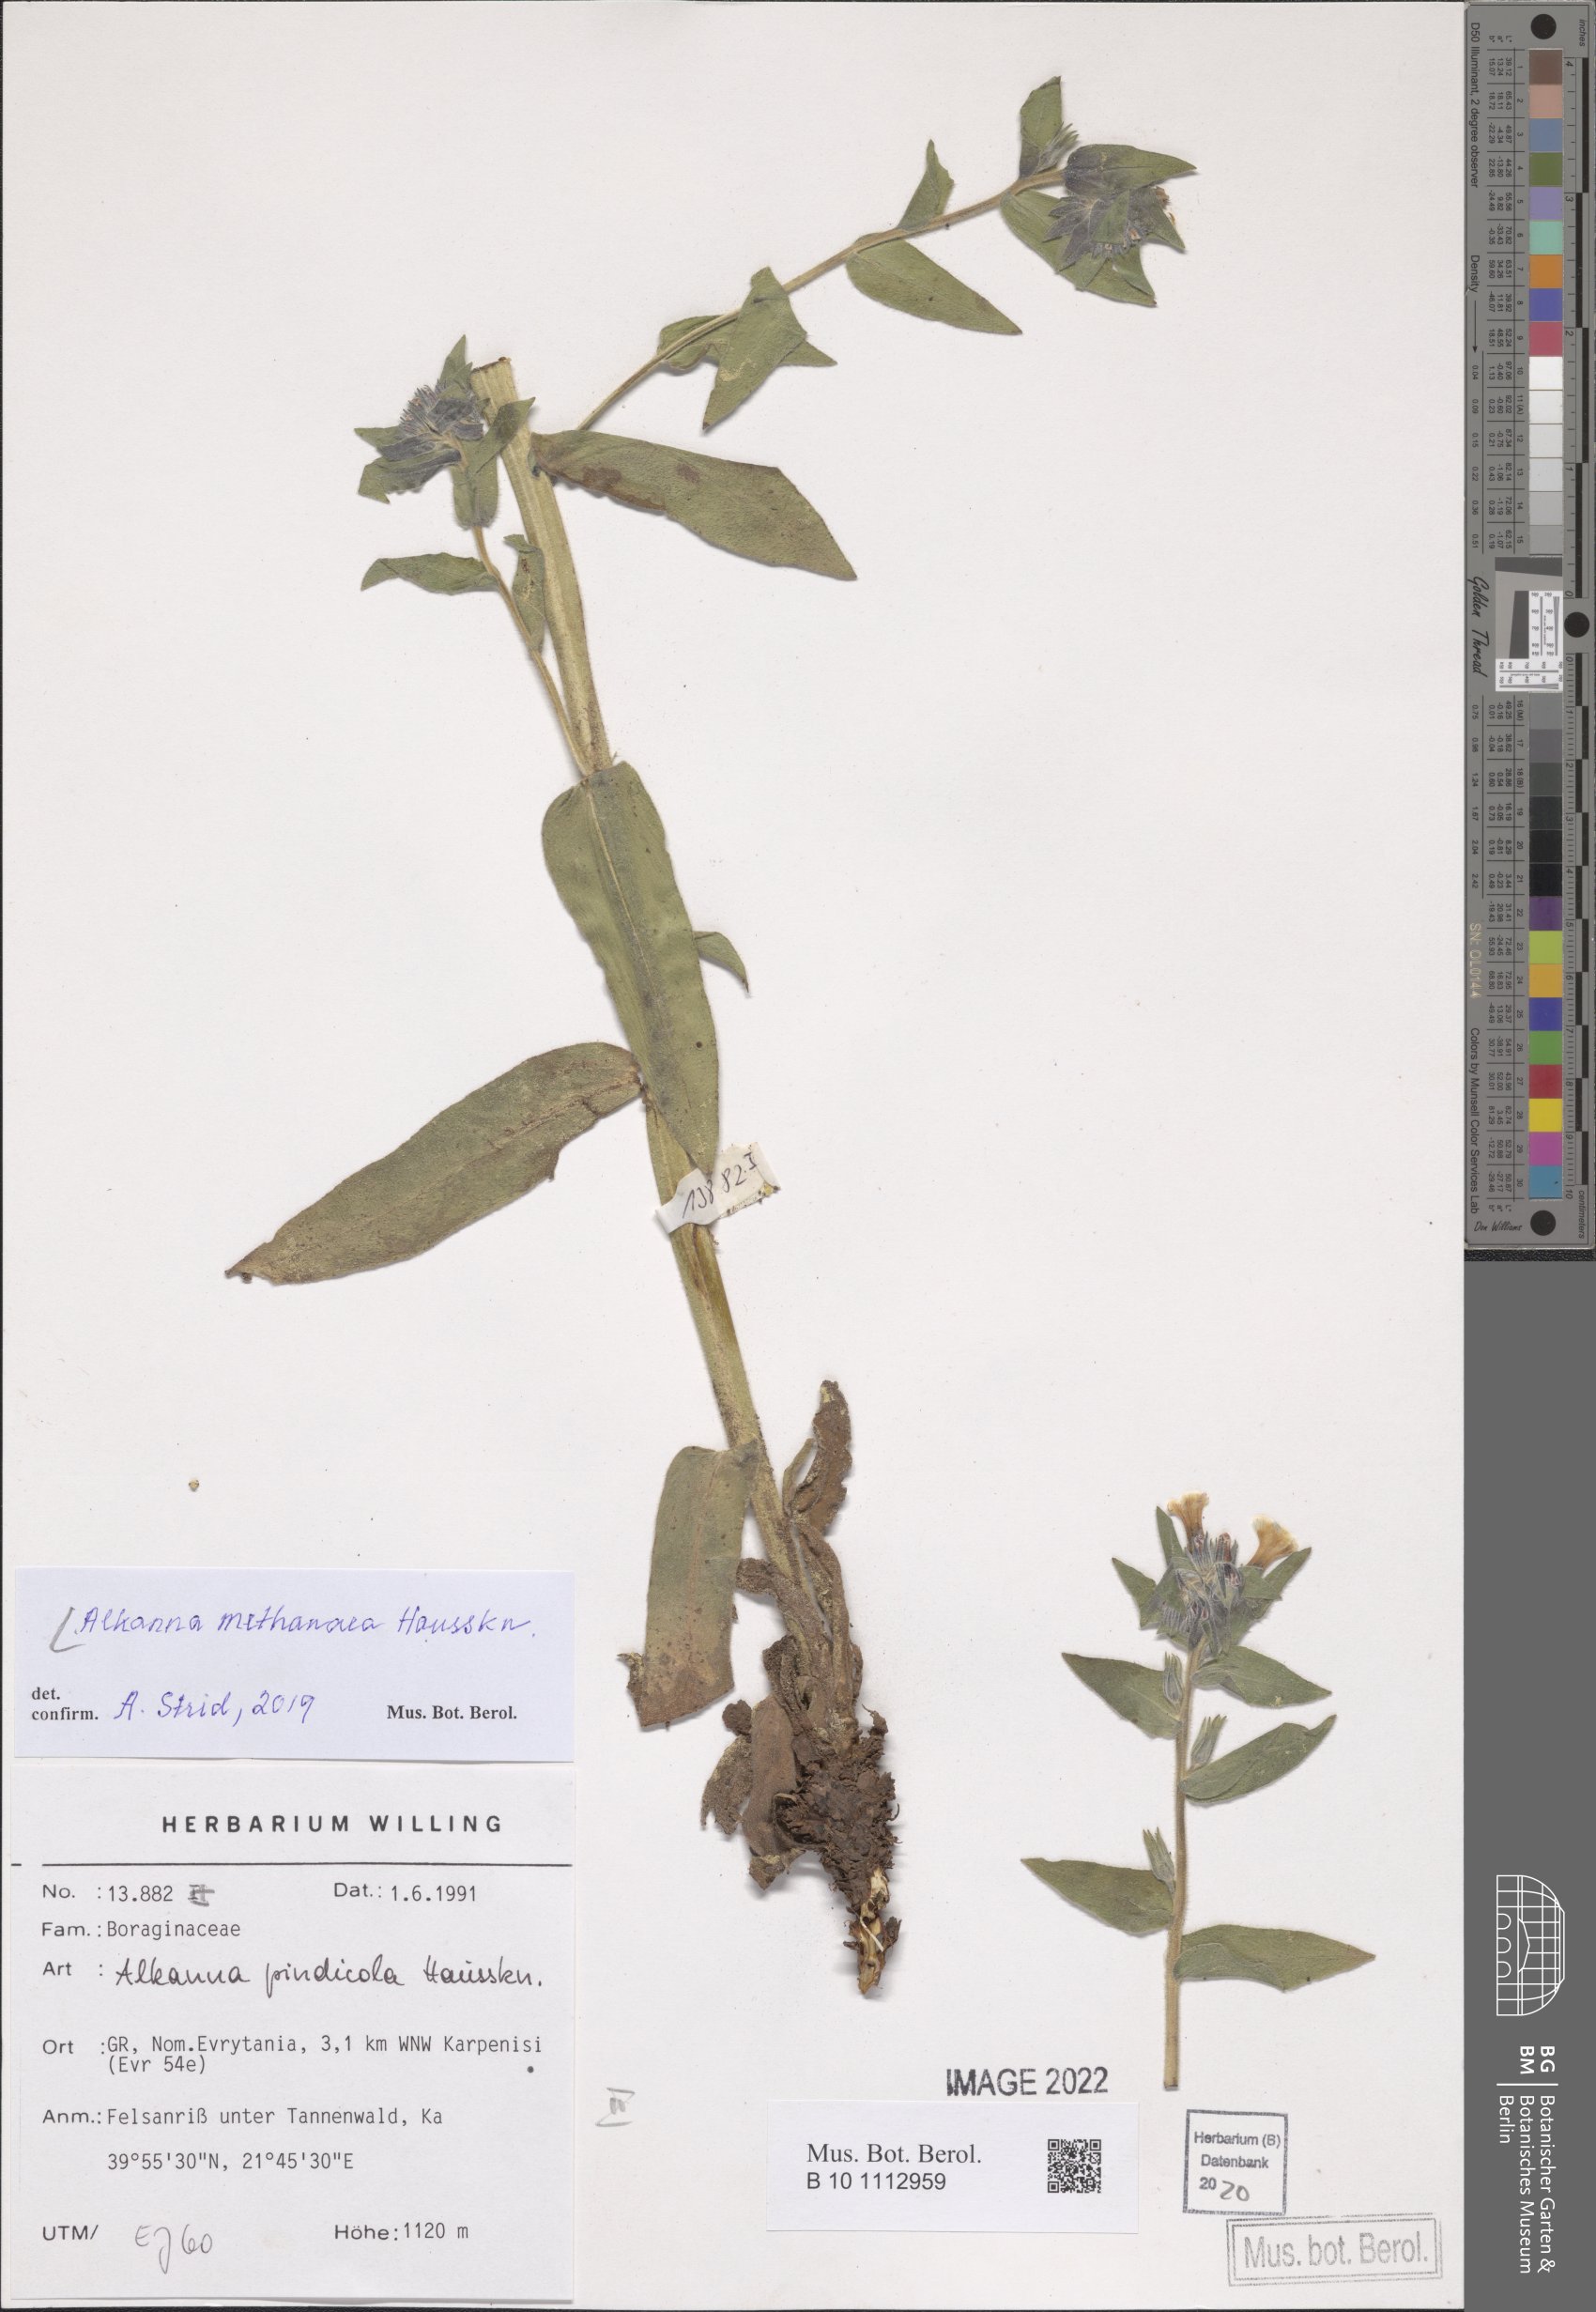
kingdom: Plantae
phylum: Tracheophyta
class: Magnoliopsida
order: Boraginales
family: Boraginaceae
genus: Alkanna
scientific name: Alkanna methanaea
